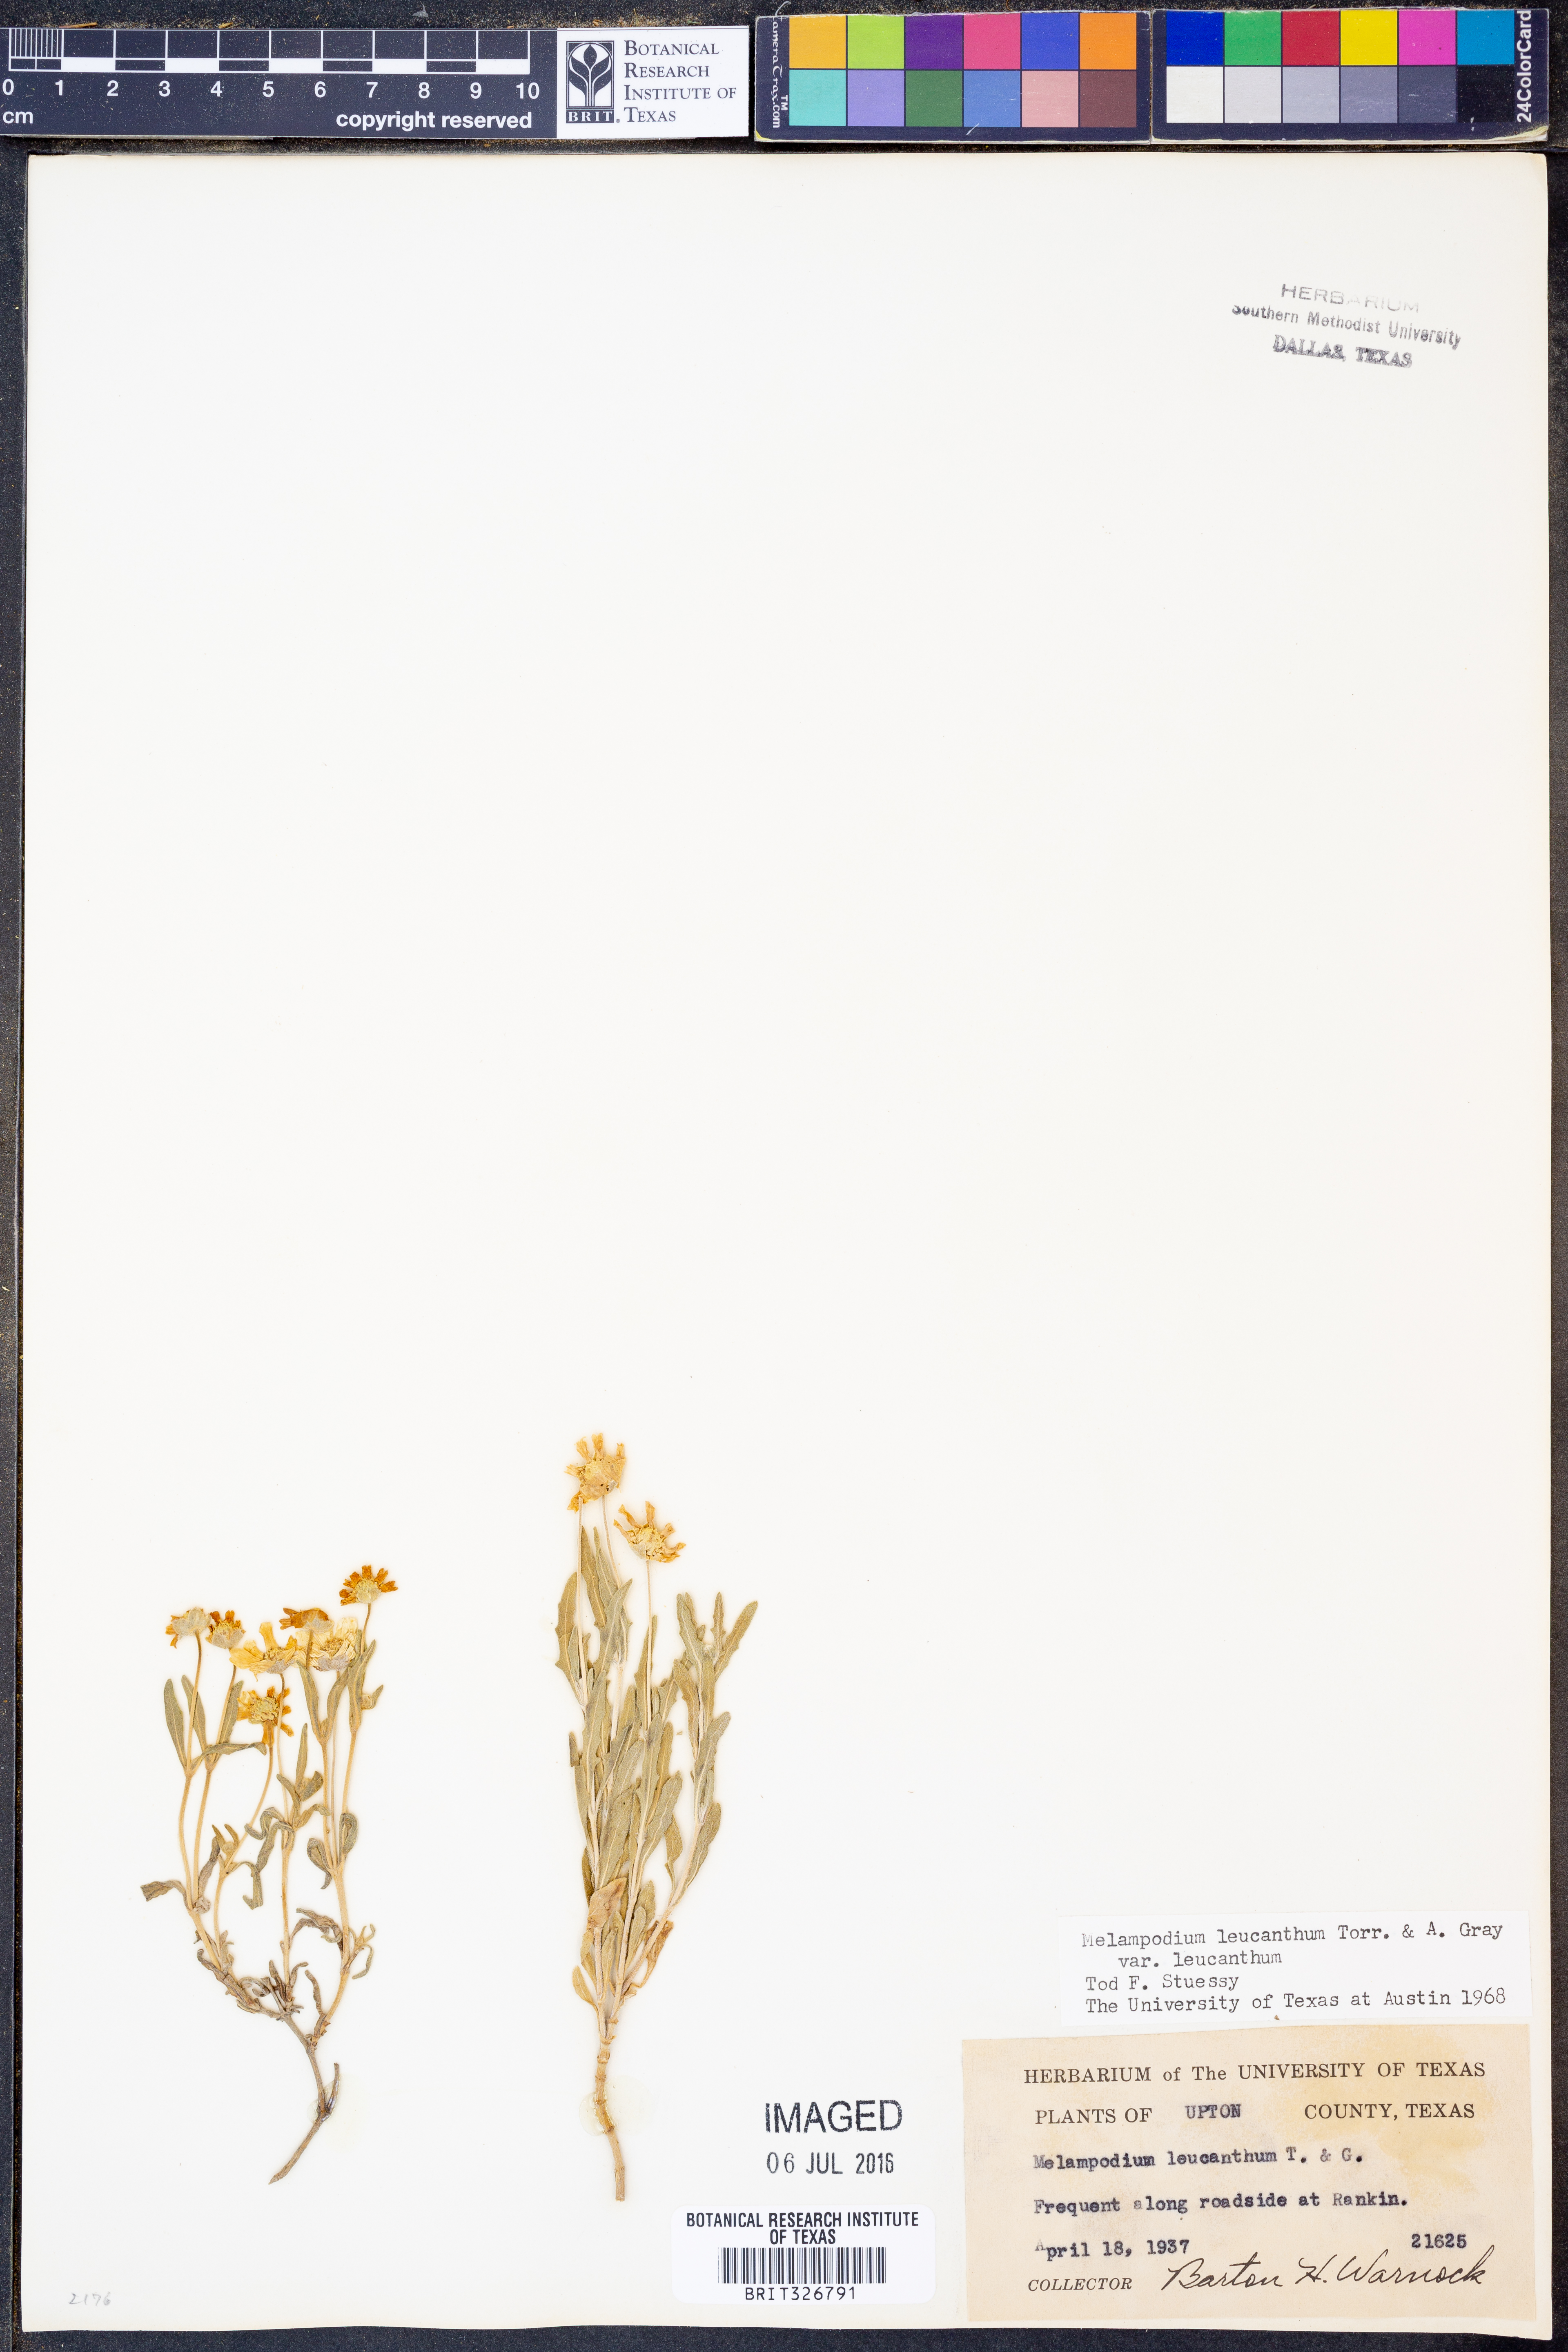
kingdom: Plantae
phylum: Tracheophyta
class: Magnoliopsida
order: Asterales
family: Asteraceae
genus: Melampodium
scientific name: Melampodium leucanthum
